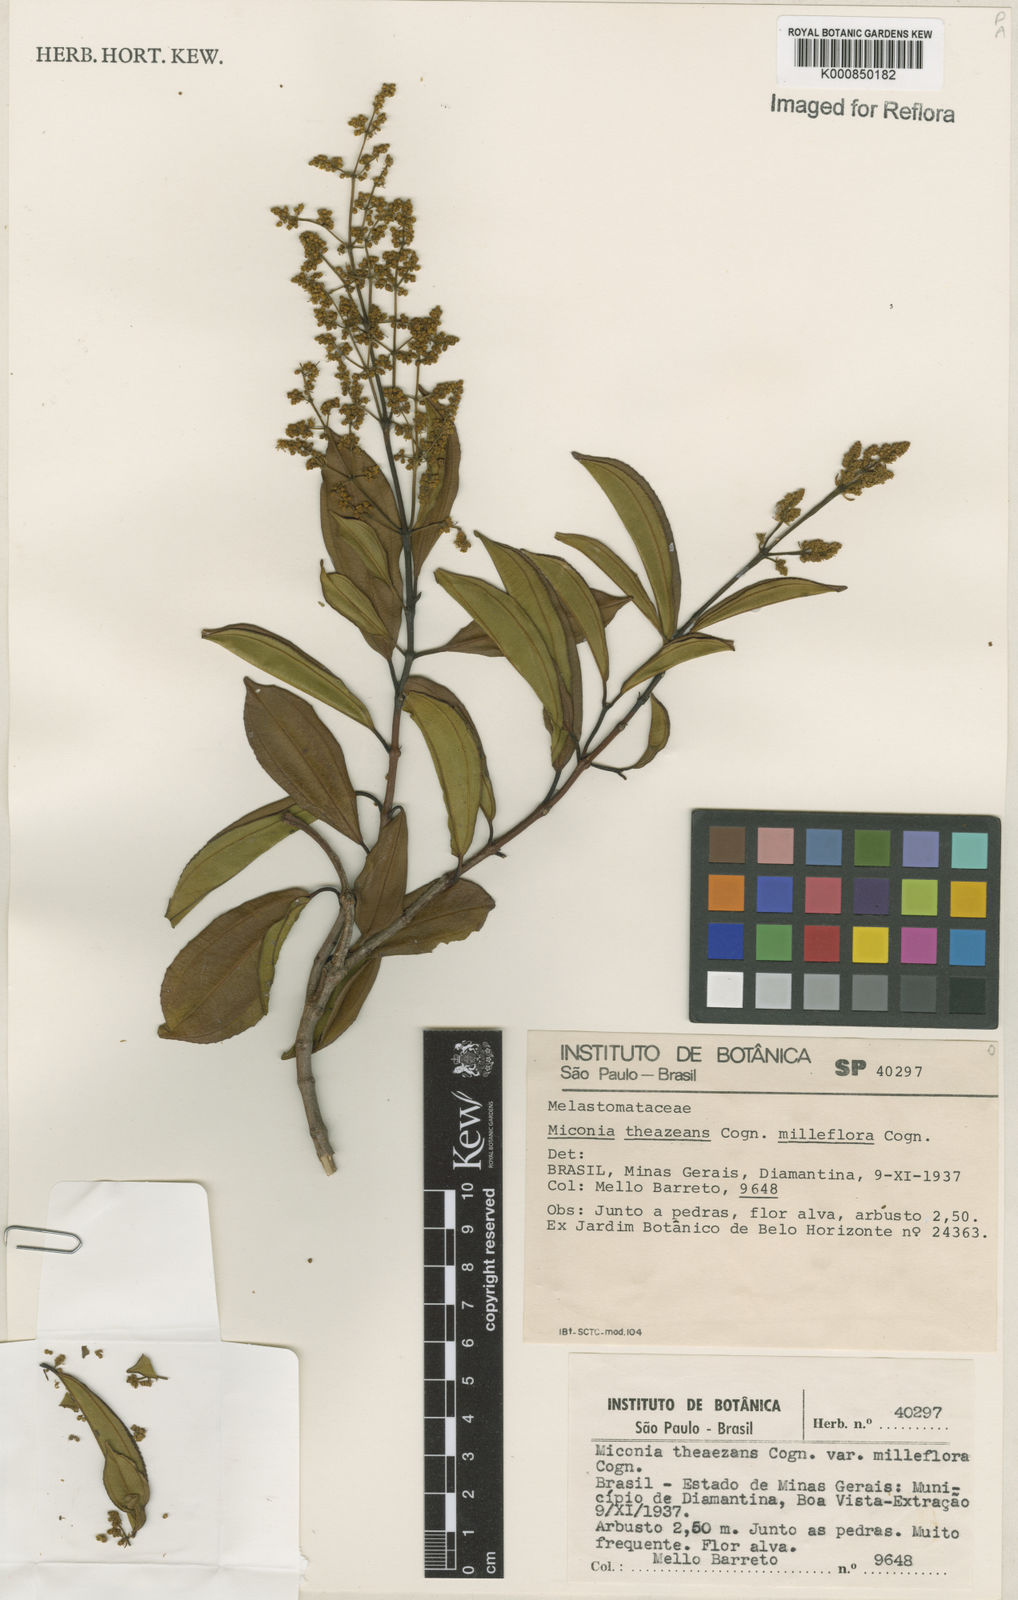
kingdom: Plantae
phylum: Tracheophyta
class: Magnoliopsida
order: Myrtales
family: Melastomataceae
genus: Miconia
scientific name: Miconia
